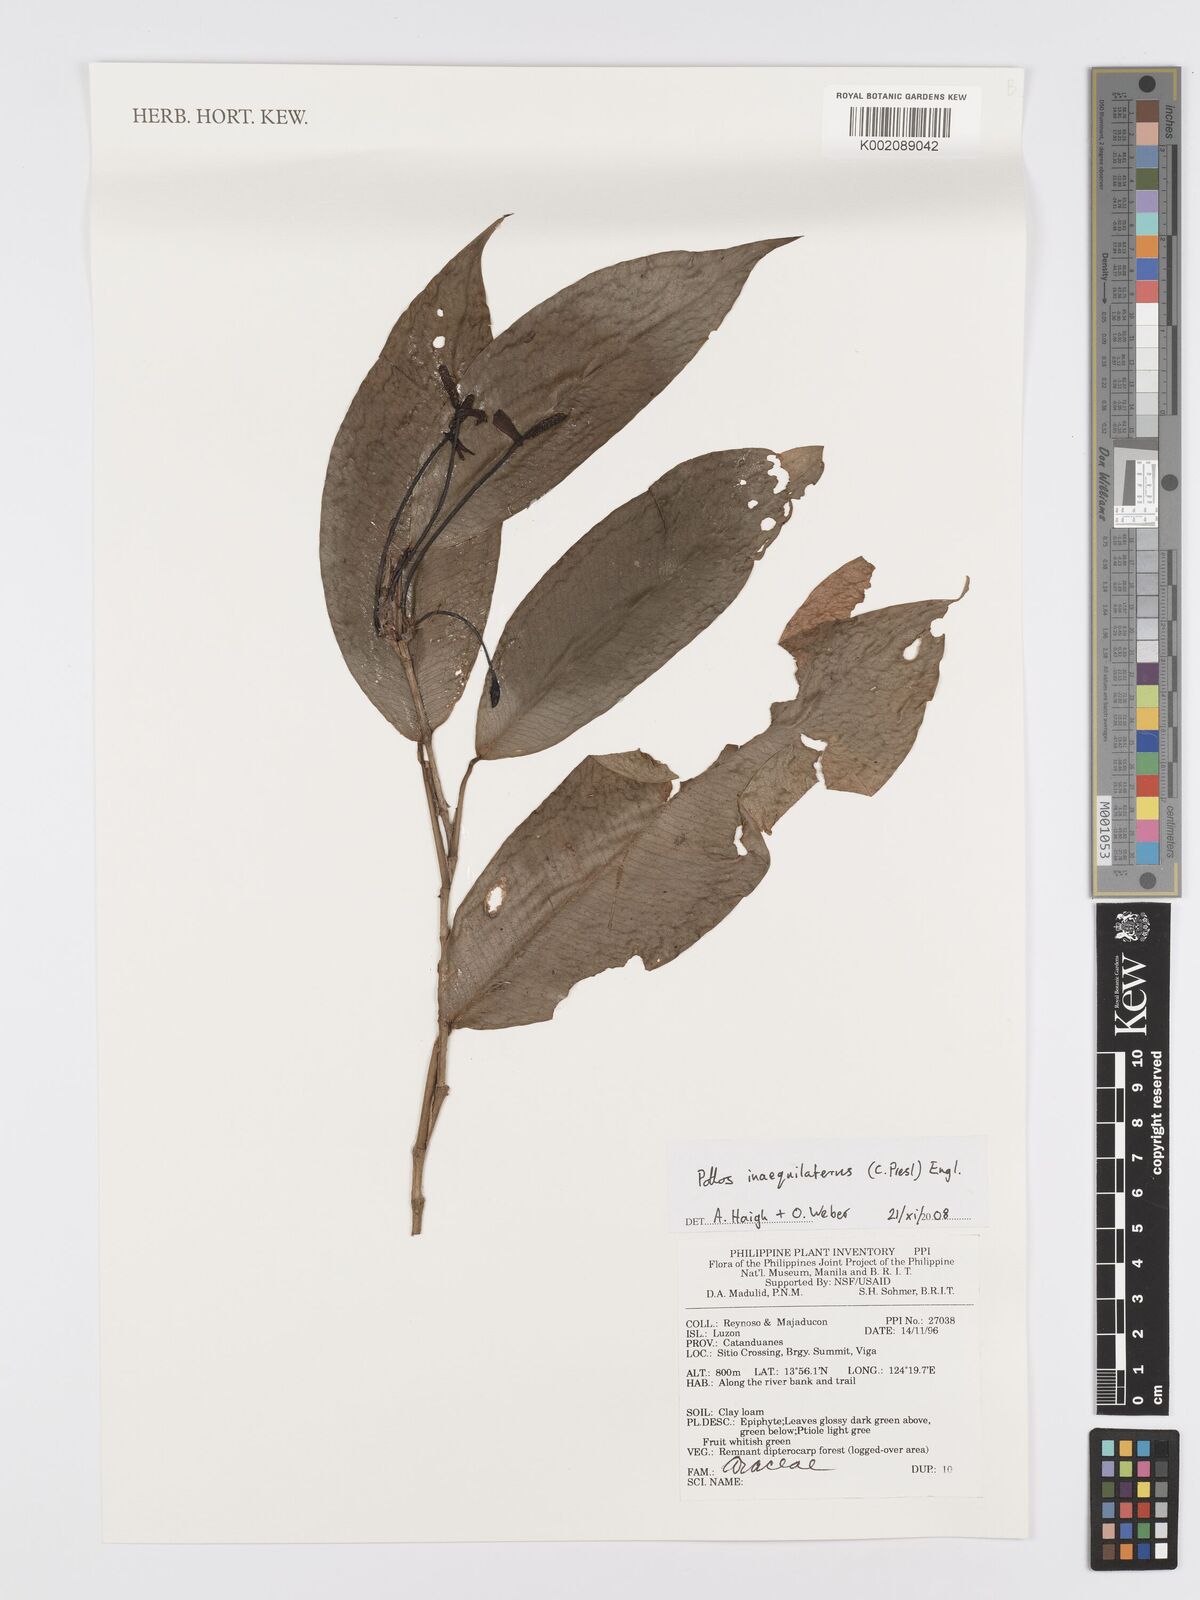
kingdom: Plantae
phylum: Tracheophyta
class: Liliopsida
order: Alismatales
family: Araceae
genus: Pothos
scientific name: Pothos inaequilaterus
